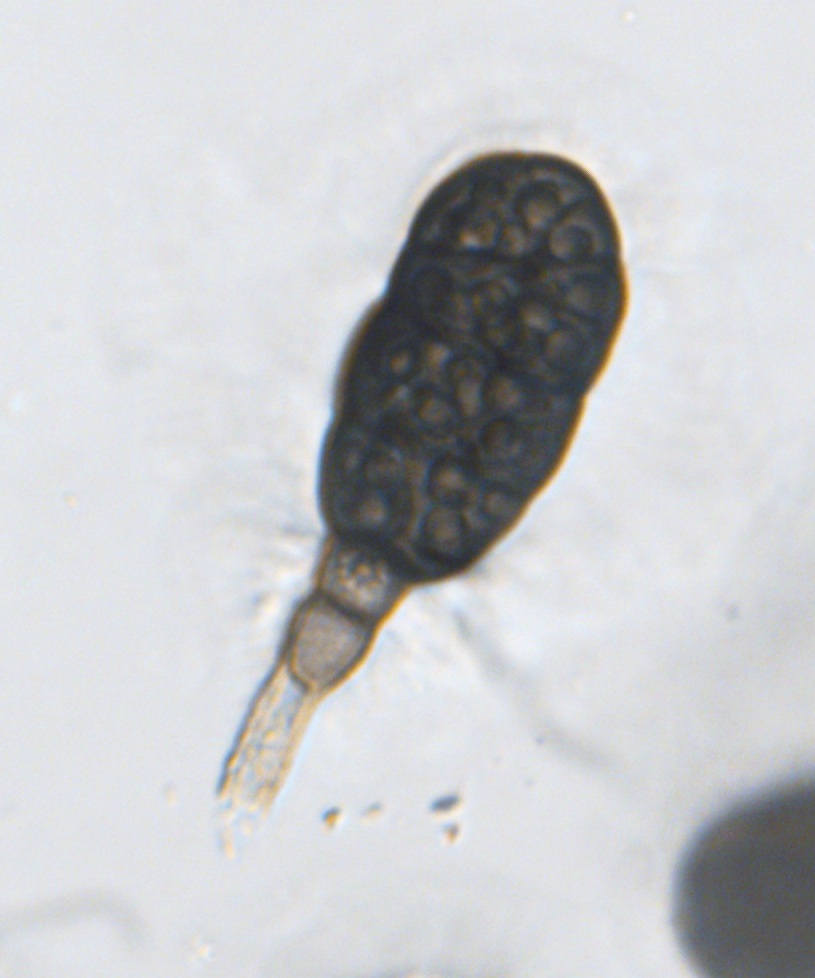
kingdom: Fungi
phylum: Ascomycota
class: Dothideomycetes
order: Pleosporales
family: Pleomassariaceae
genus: Splanchnonema
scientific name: Splanchnonema argus
